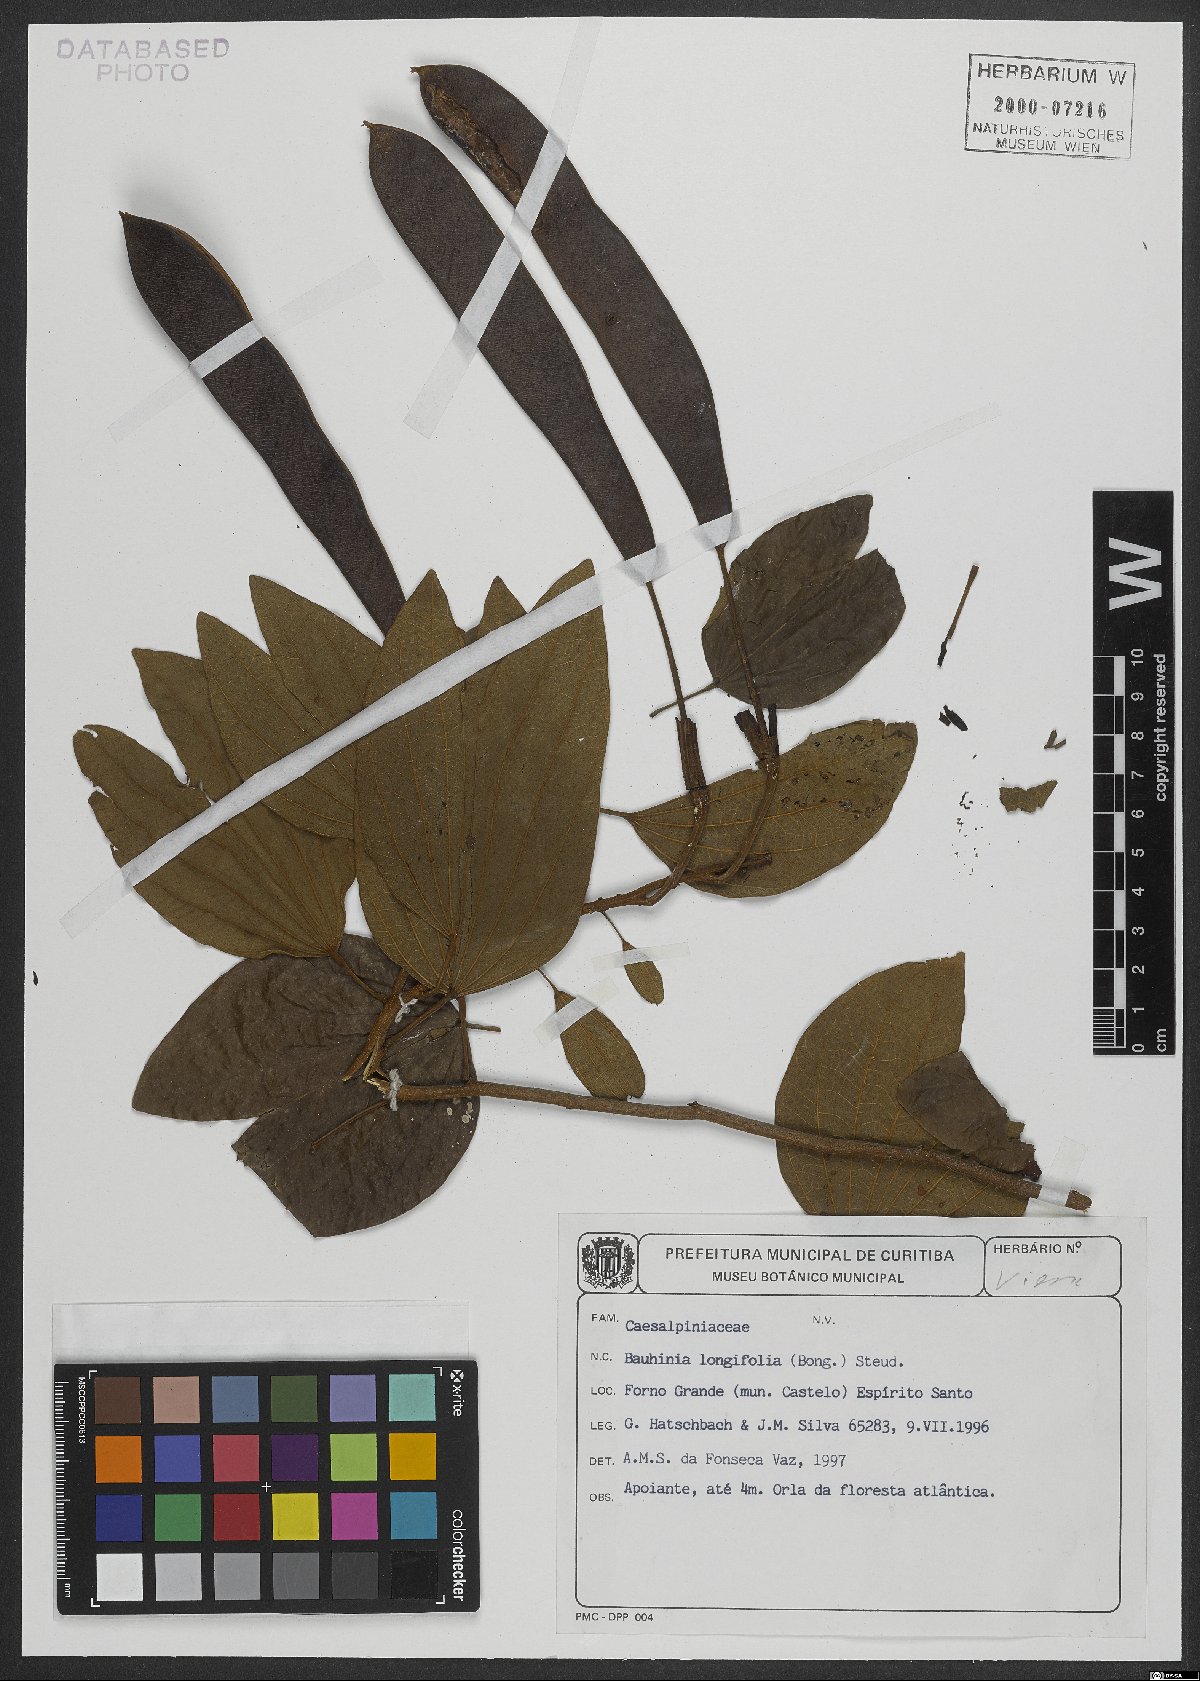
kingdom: Plantae
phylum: Tracheophyta
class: Magnoliopsida
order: Fabales
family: Fabaceae
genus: Bauhinia
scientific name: Bauhinia longifolia
